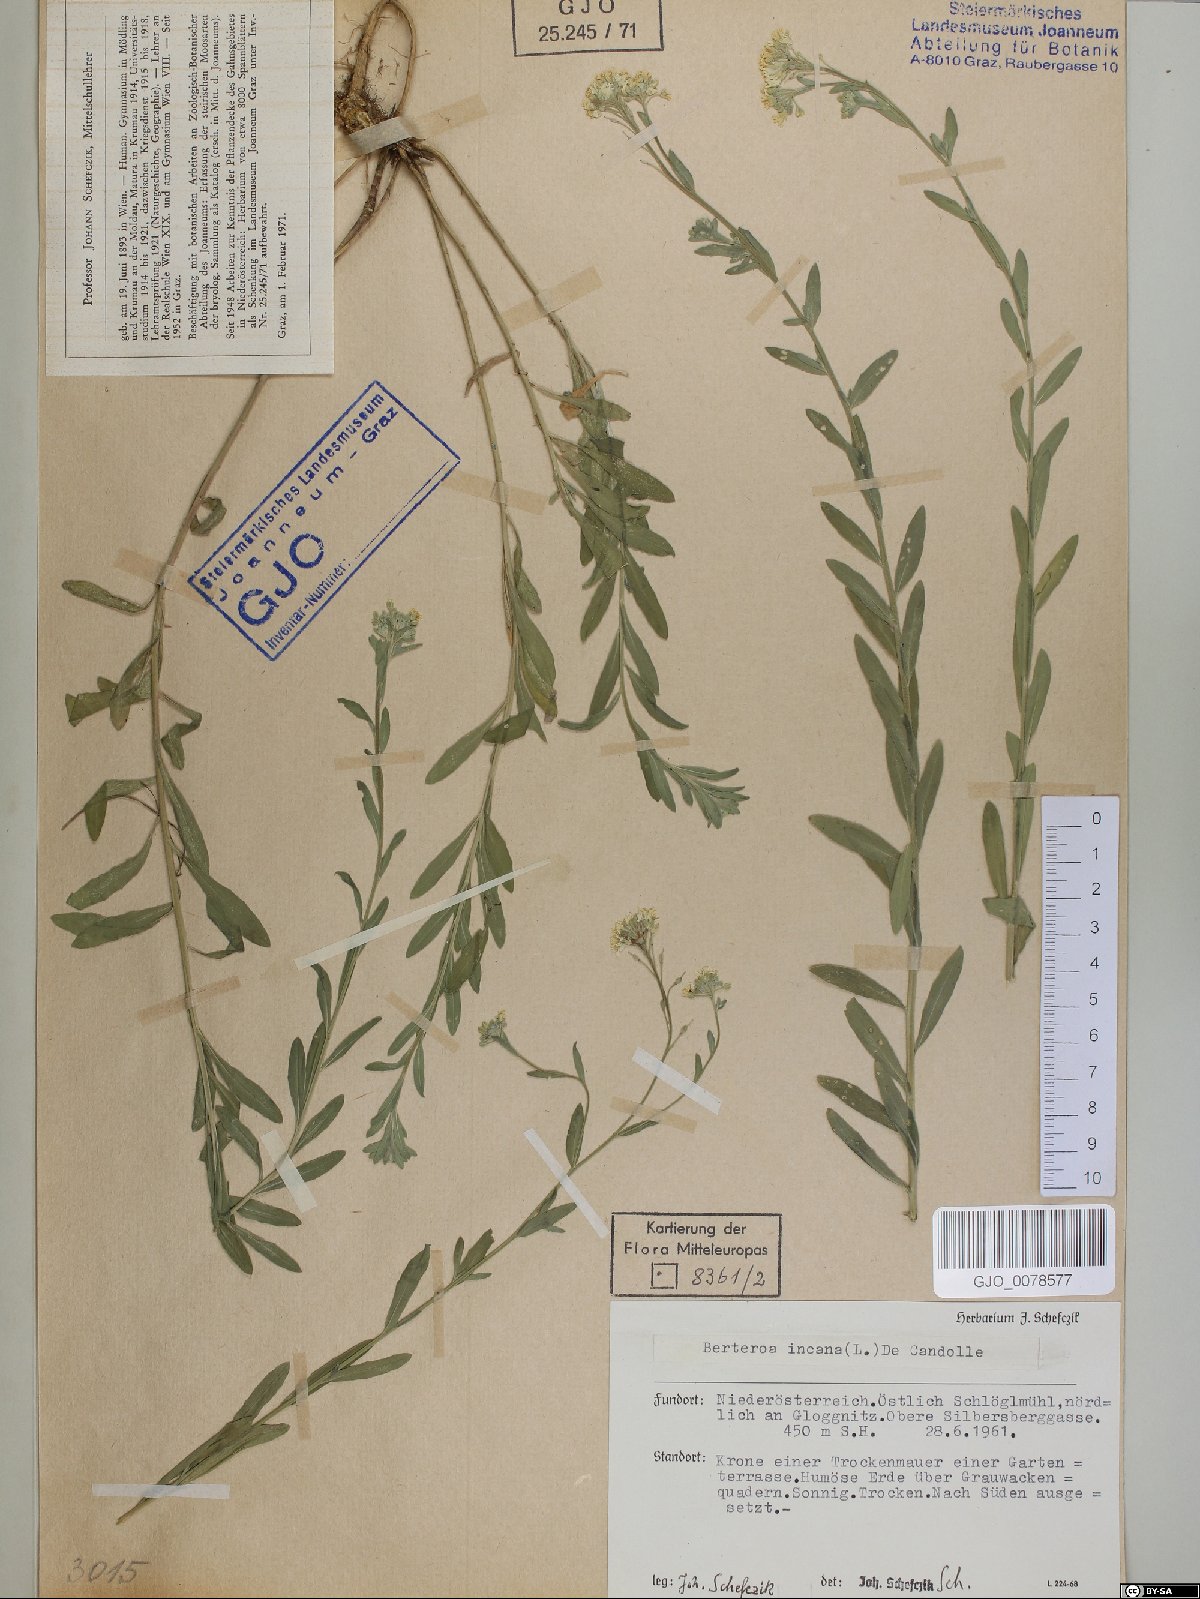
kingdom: Plantae
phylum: Tracheophyta
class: Magnoliopsida
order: Brassicales
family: Brassicaceae
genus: Berteroa
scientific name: Berteroa incana
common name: Hoary alison
